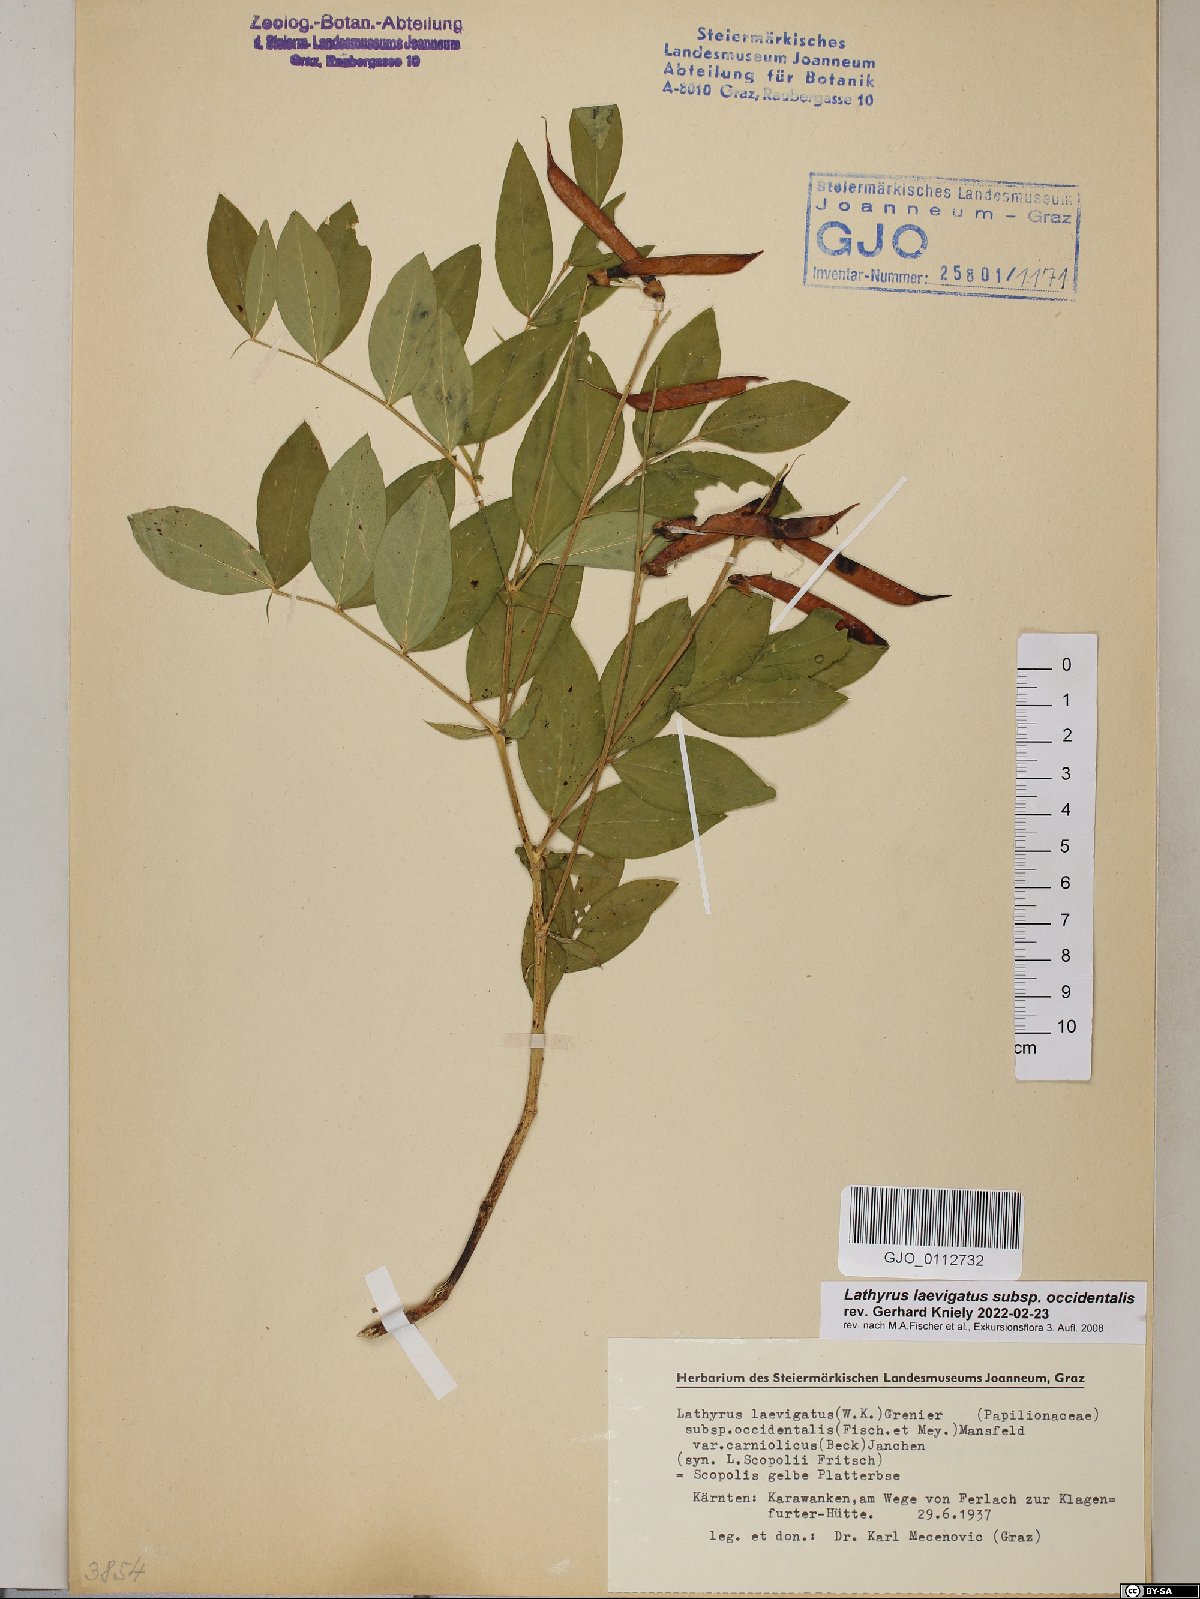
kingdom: Plantae
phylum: Tracheophyta
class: Magnoliopsida
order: Fabales
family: Fabaceae
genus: Lathyrus
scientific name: Lathyrus laevigatus
